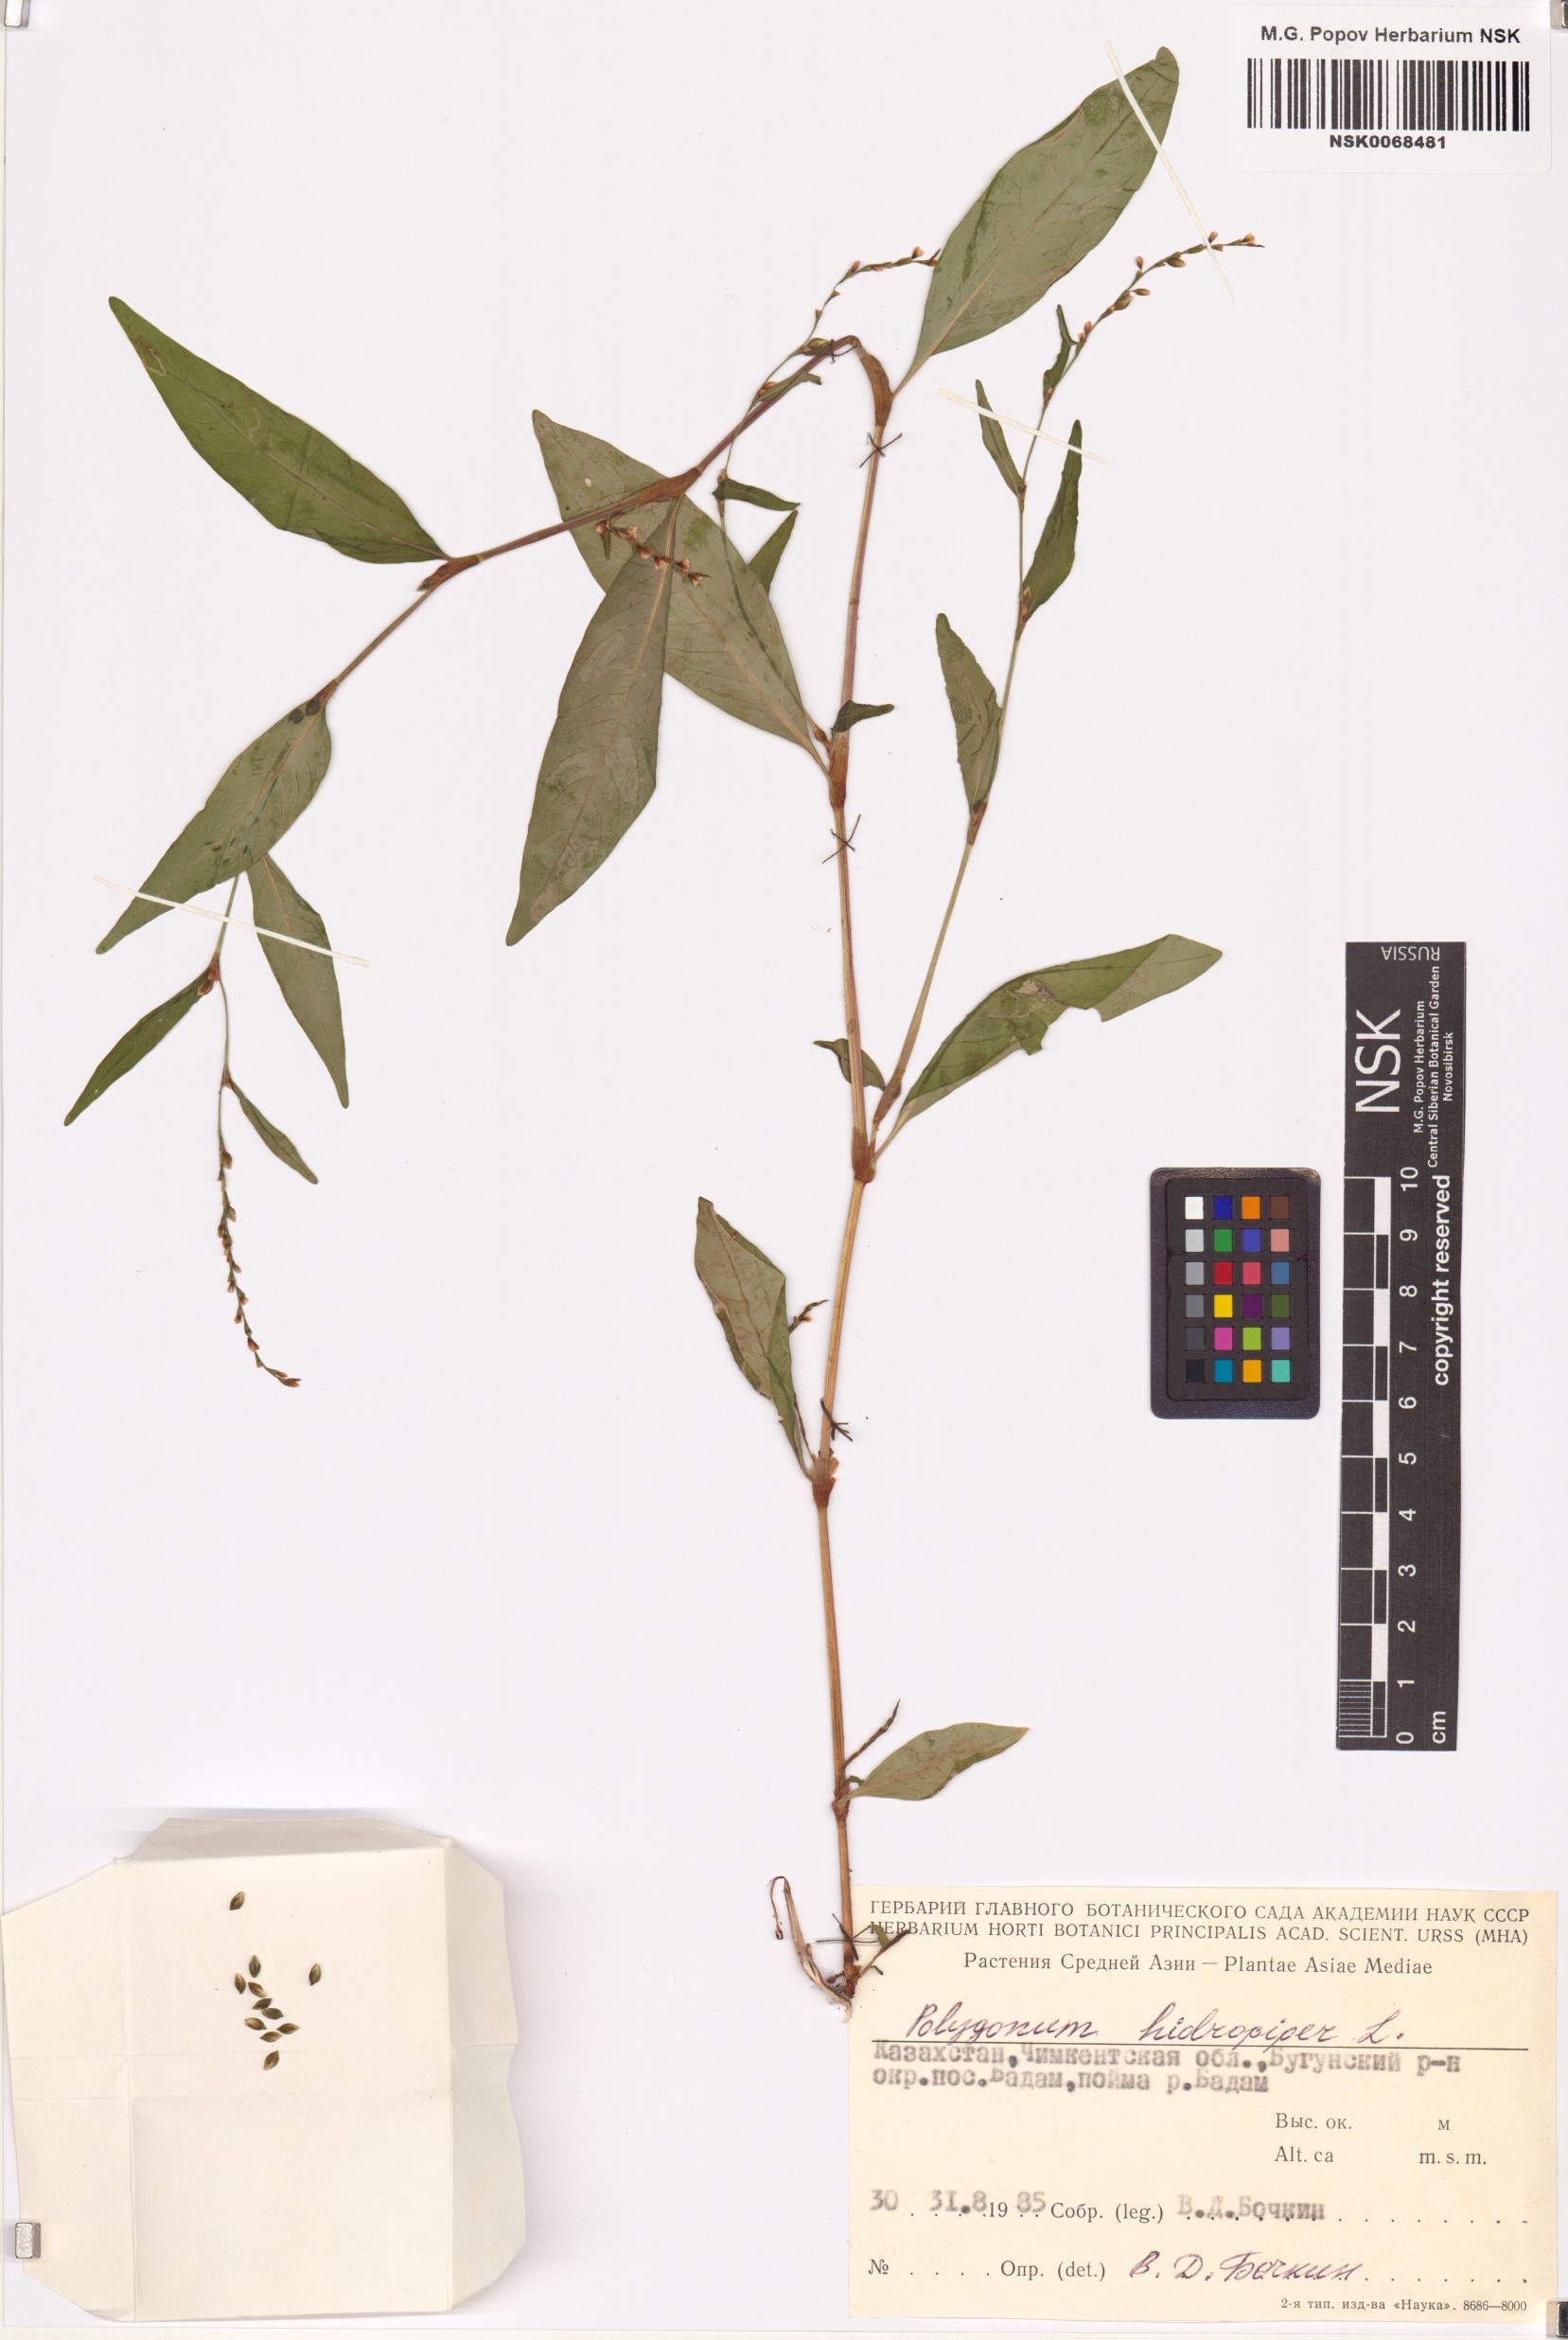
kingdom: Plantae
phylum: Tracheophyta
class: Magnoliopsida
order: Caryophyllales
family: Polygonaceae
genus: Persicaria
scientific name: Persicaria hydropiper
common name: Water-pepper
